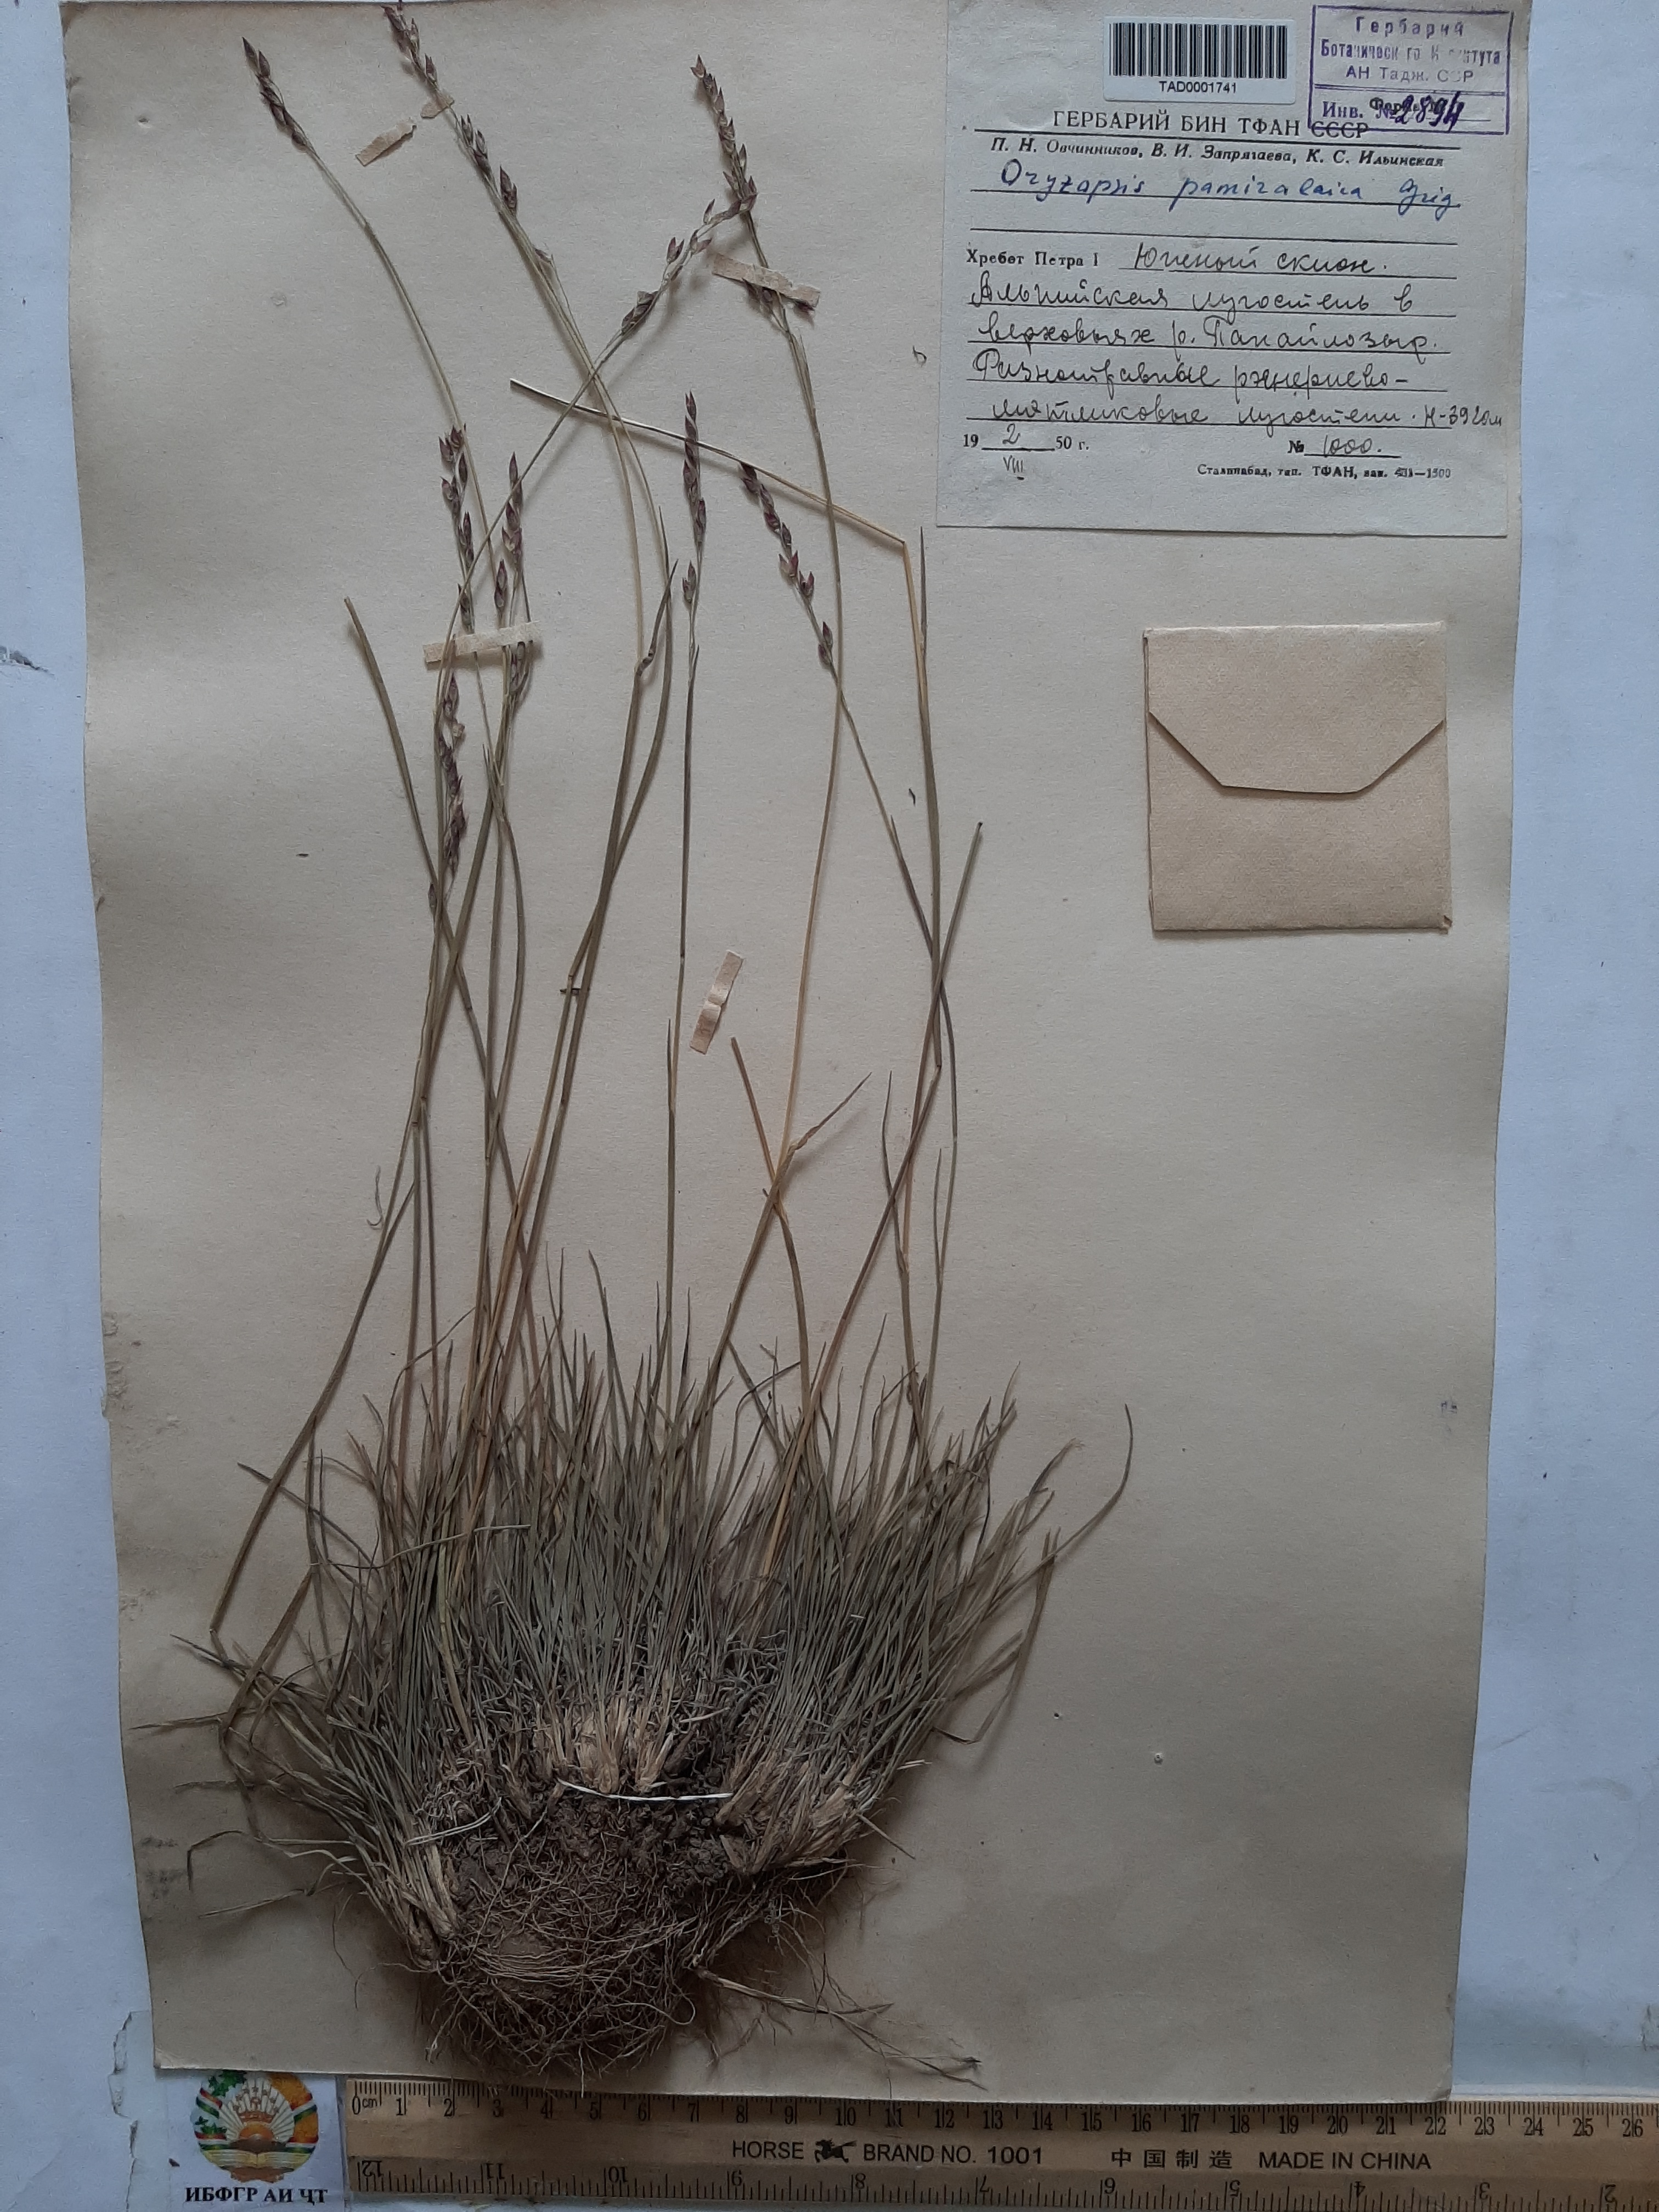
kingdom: Plantae
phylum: Tracheophyta
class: Liliopsida
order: Poales
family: Poaceae
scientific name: Poaceae
